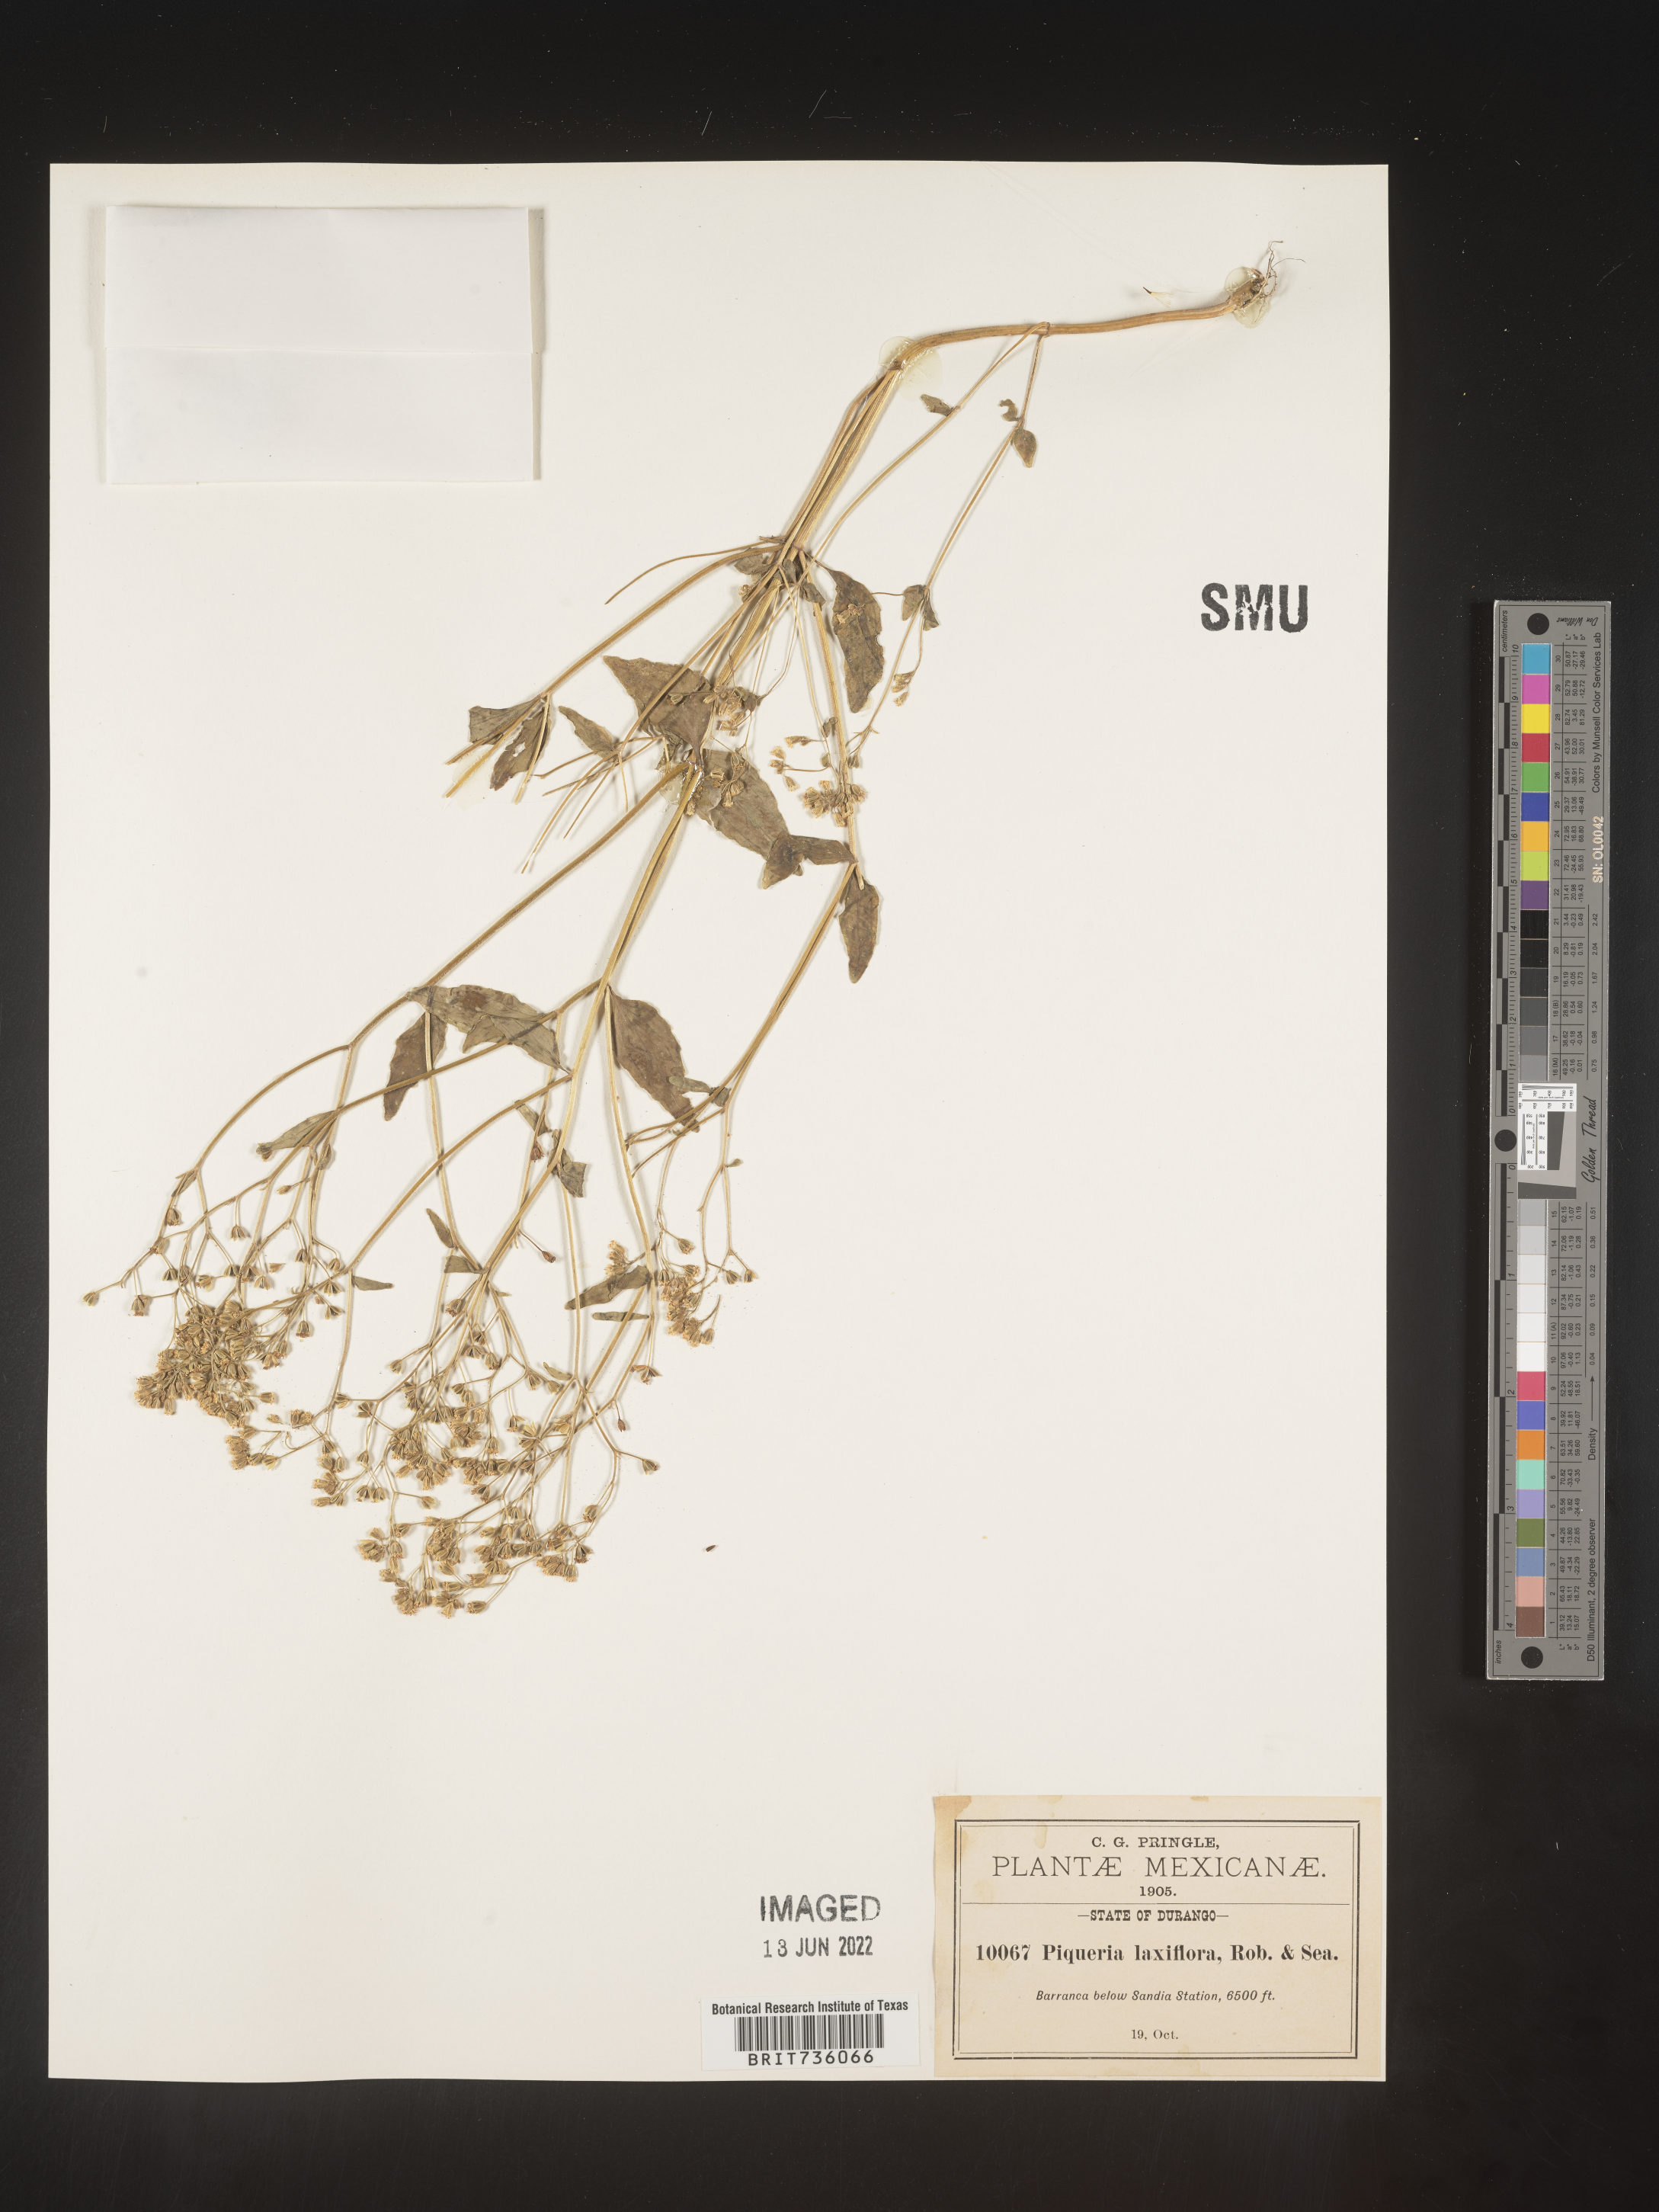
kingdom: Plantae
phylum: Tracheophyta
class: Magnoliopsida
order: Asterales
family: Asteraceae
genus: Piqueria
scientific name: Piqueria
